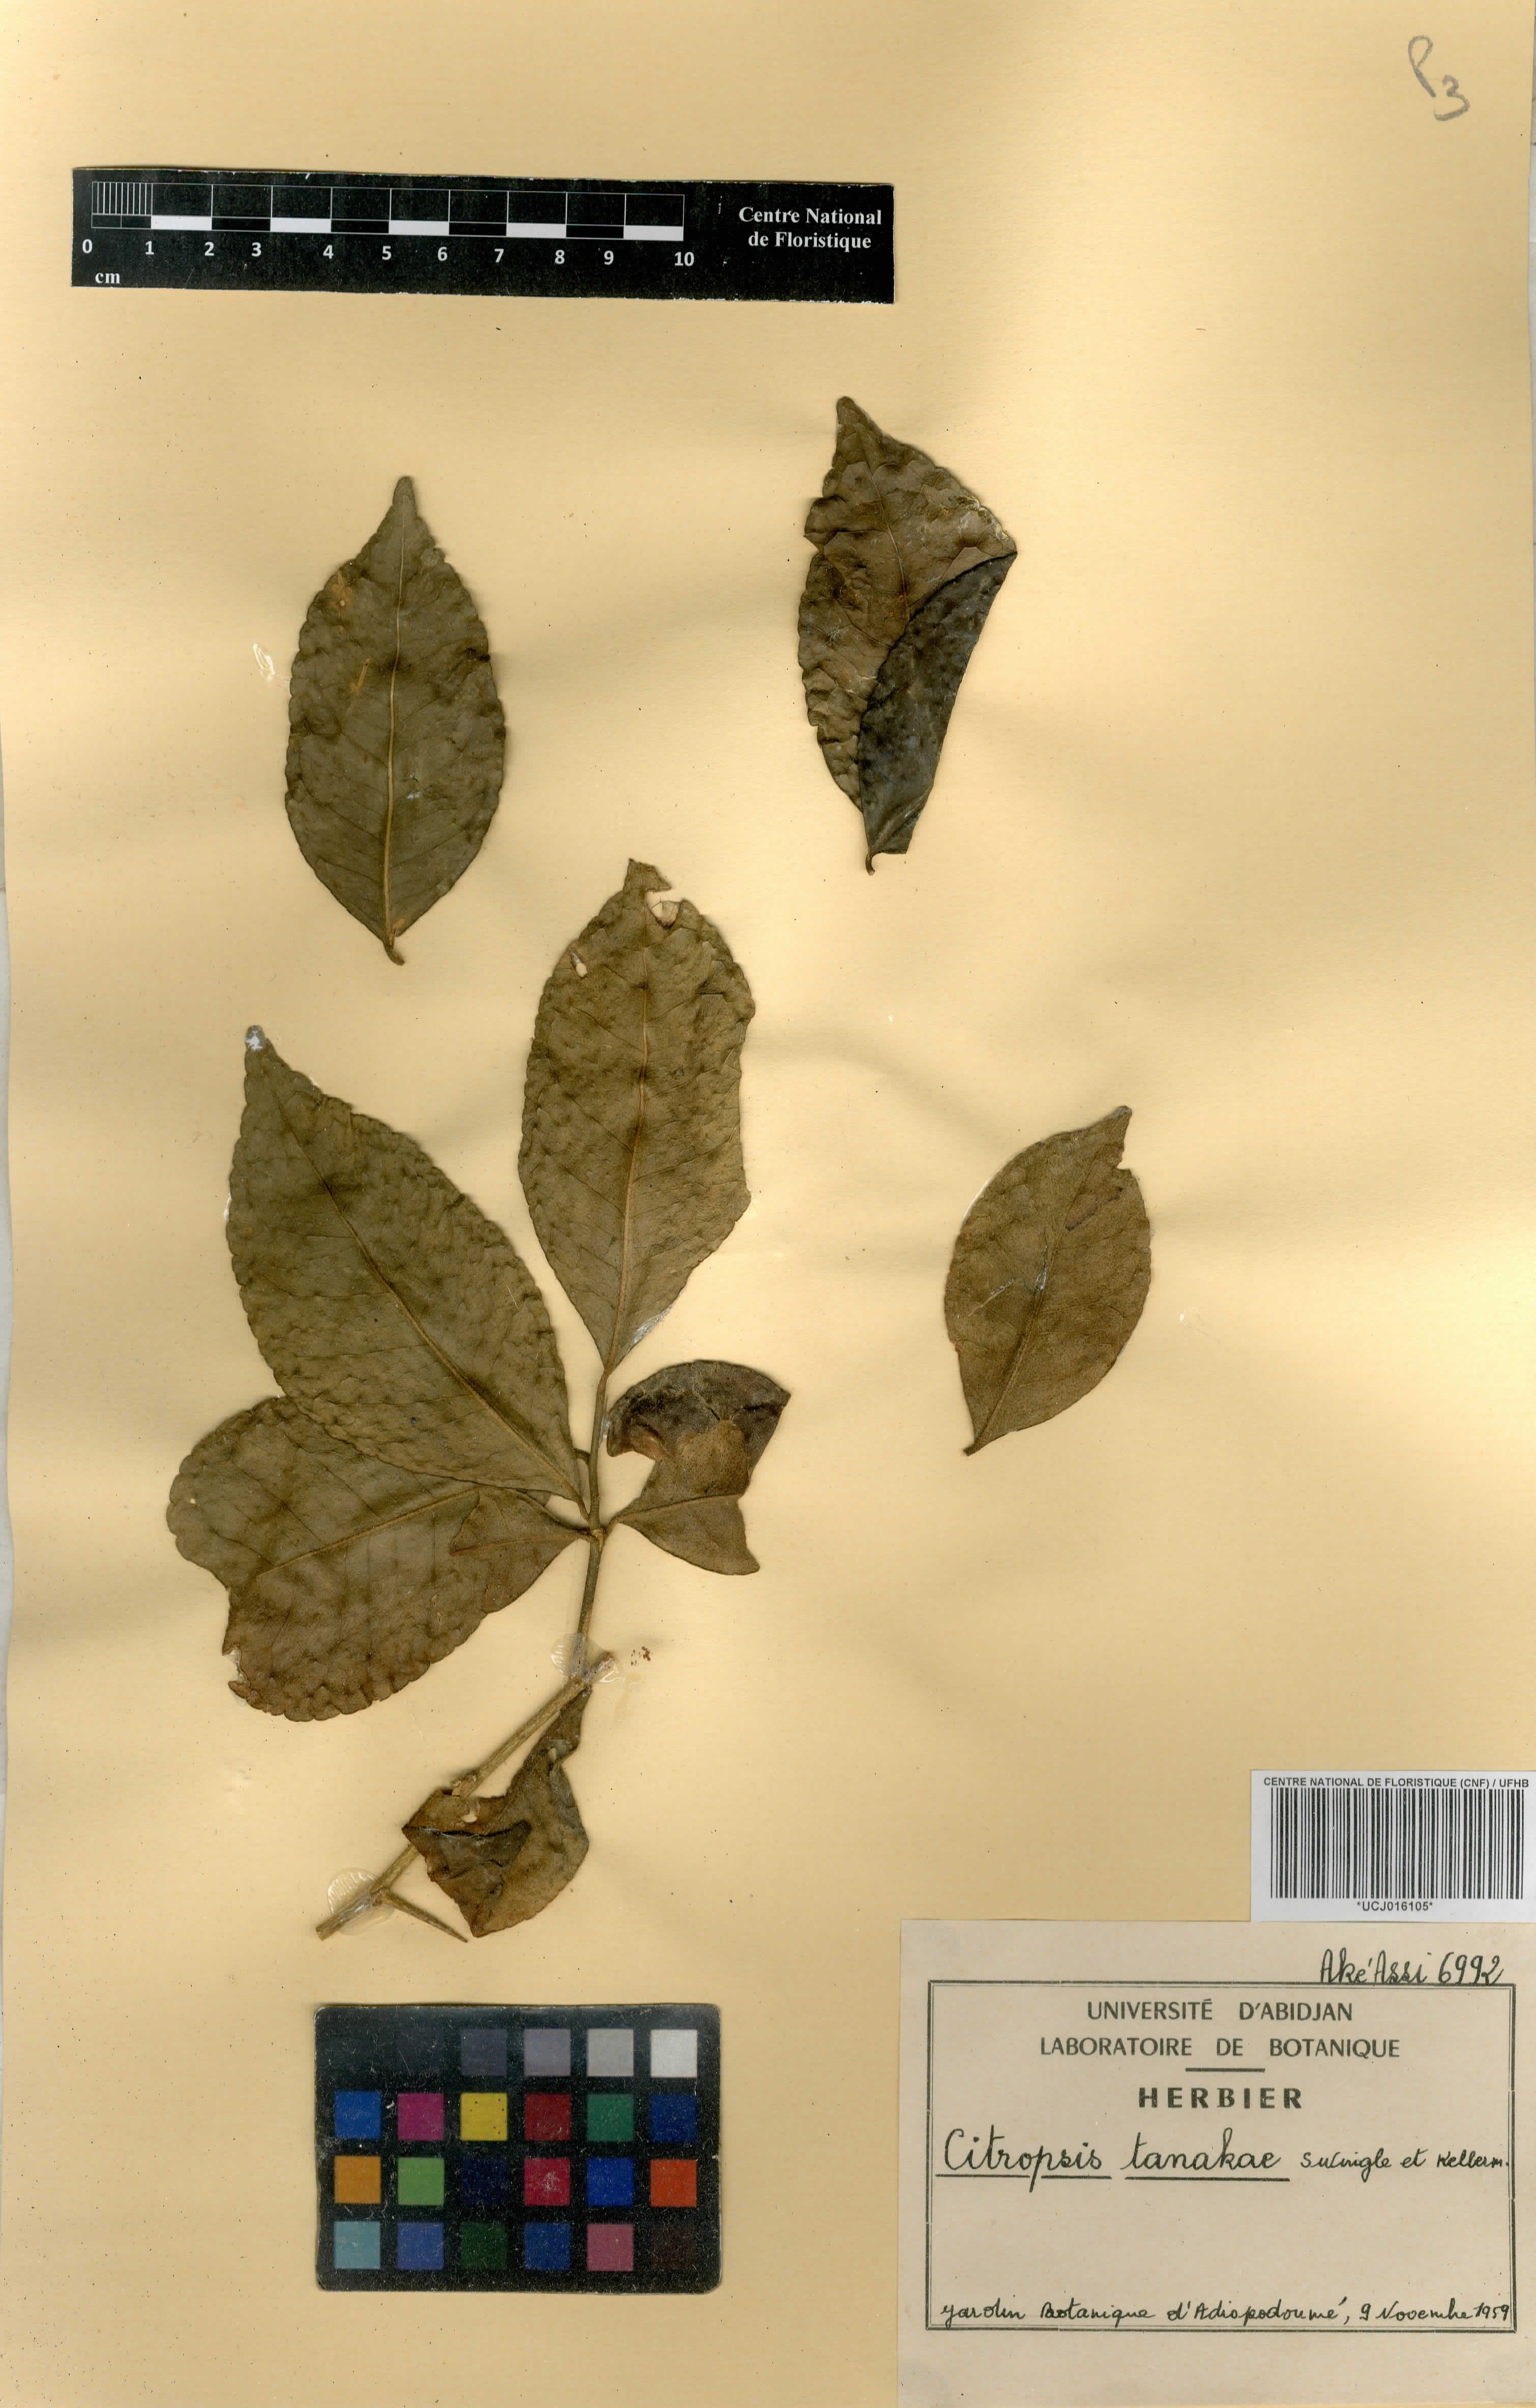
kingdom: Plantae
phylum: Tracheophyta
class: Magnoliopsida
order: Sapindales
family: Rutaceae
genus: Citropsis
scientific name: Citropsis gabunensis
